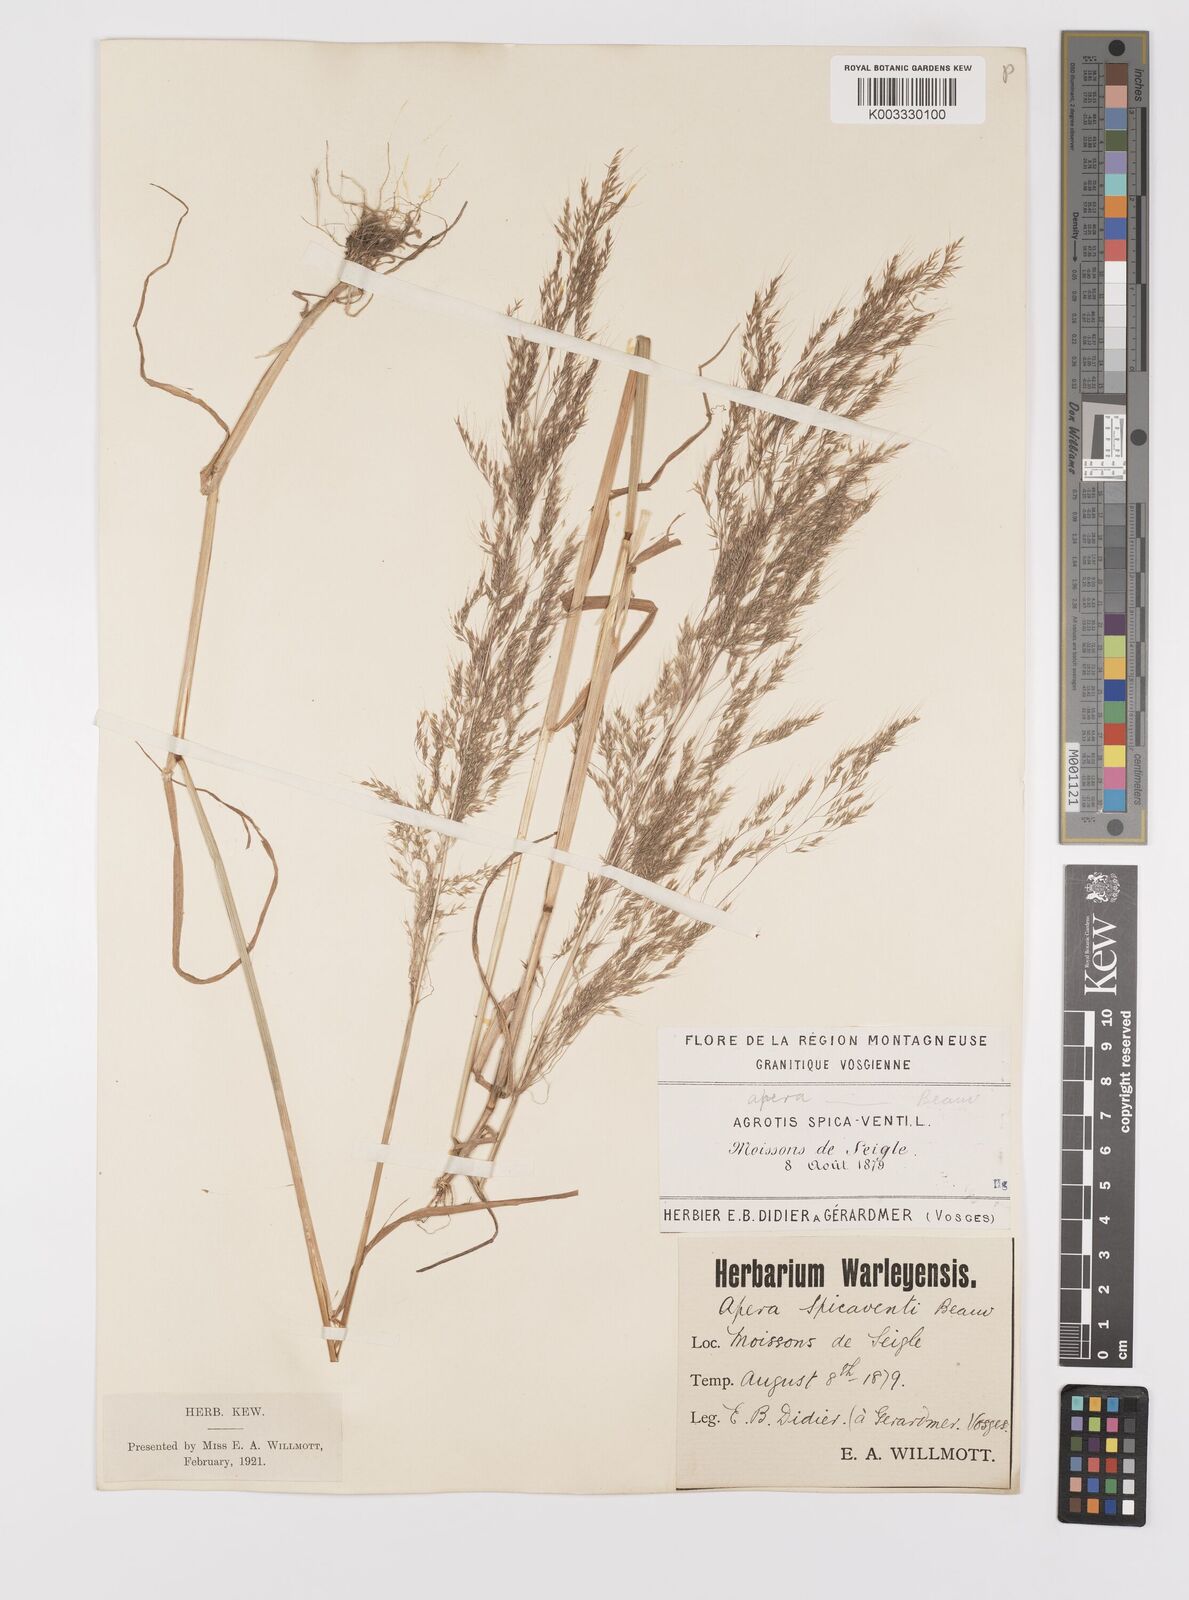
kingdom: Plantae
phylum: Tracheophyta
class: Liliopsida
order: Poales
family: Poaceae
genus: Apera
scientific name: Apera spica-venti
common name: Loose silky-bent
